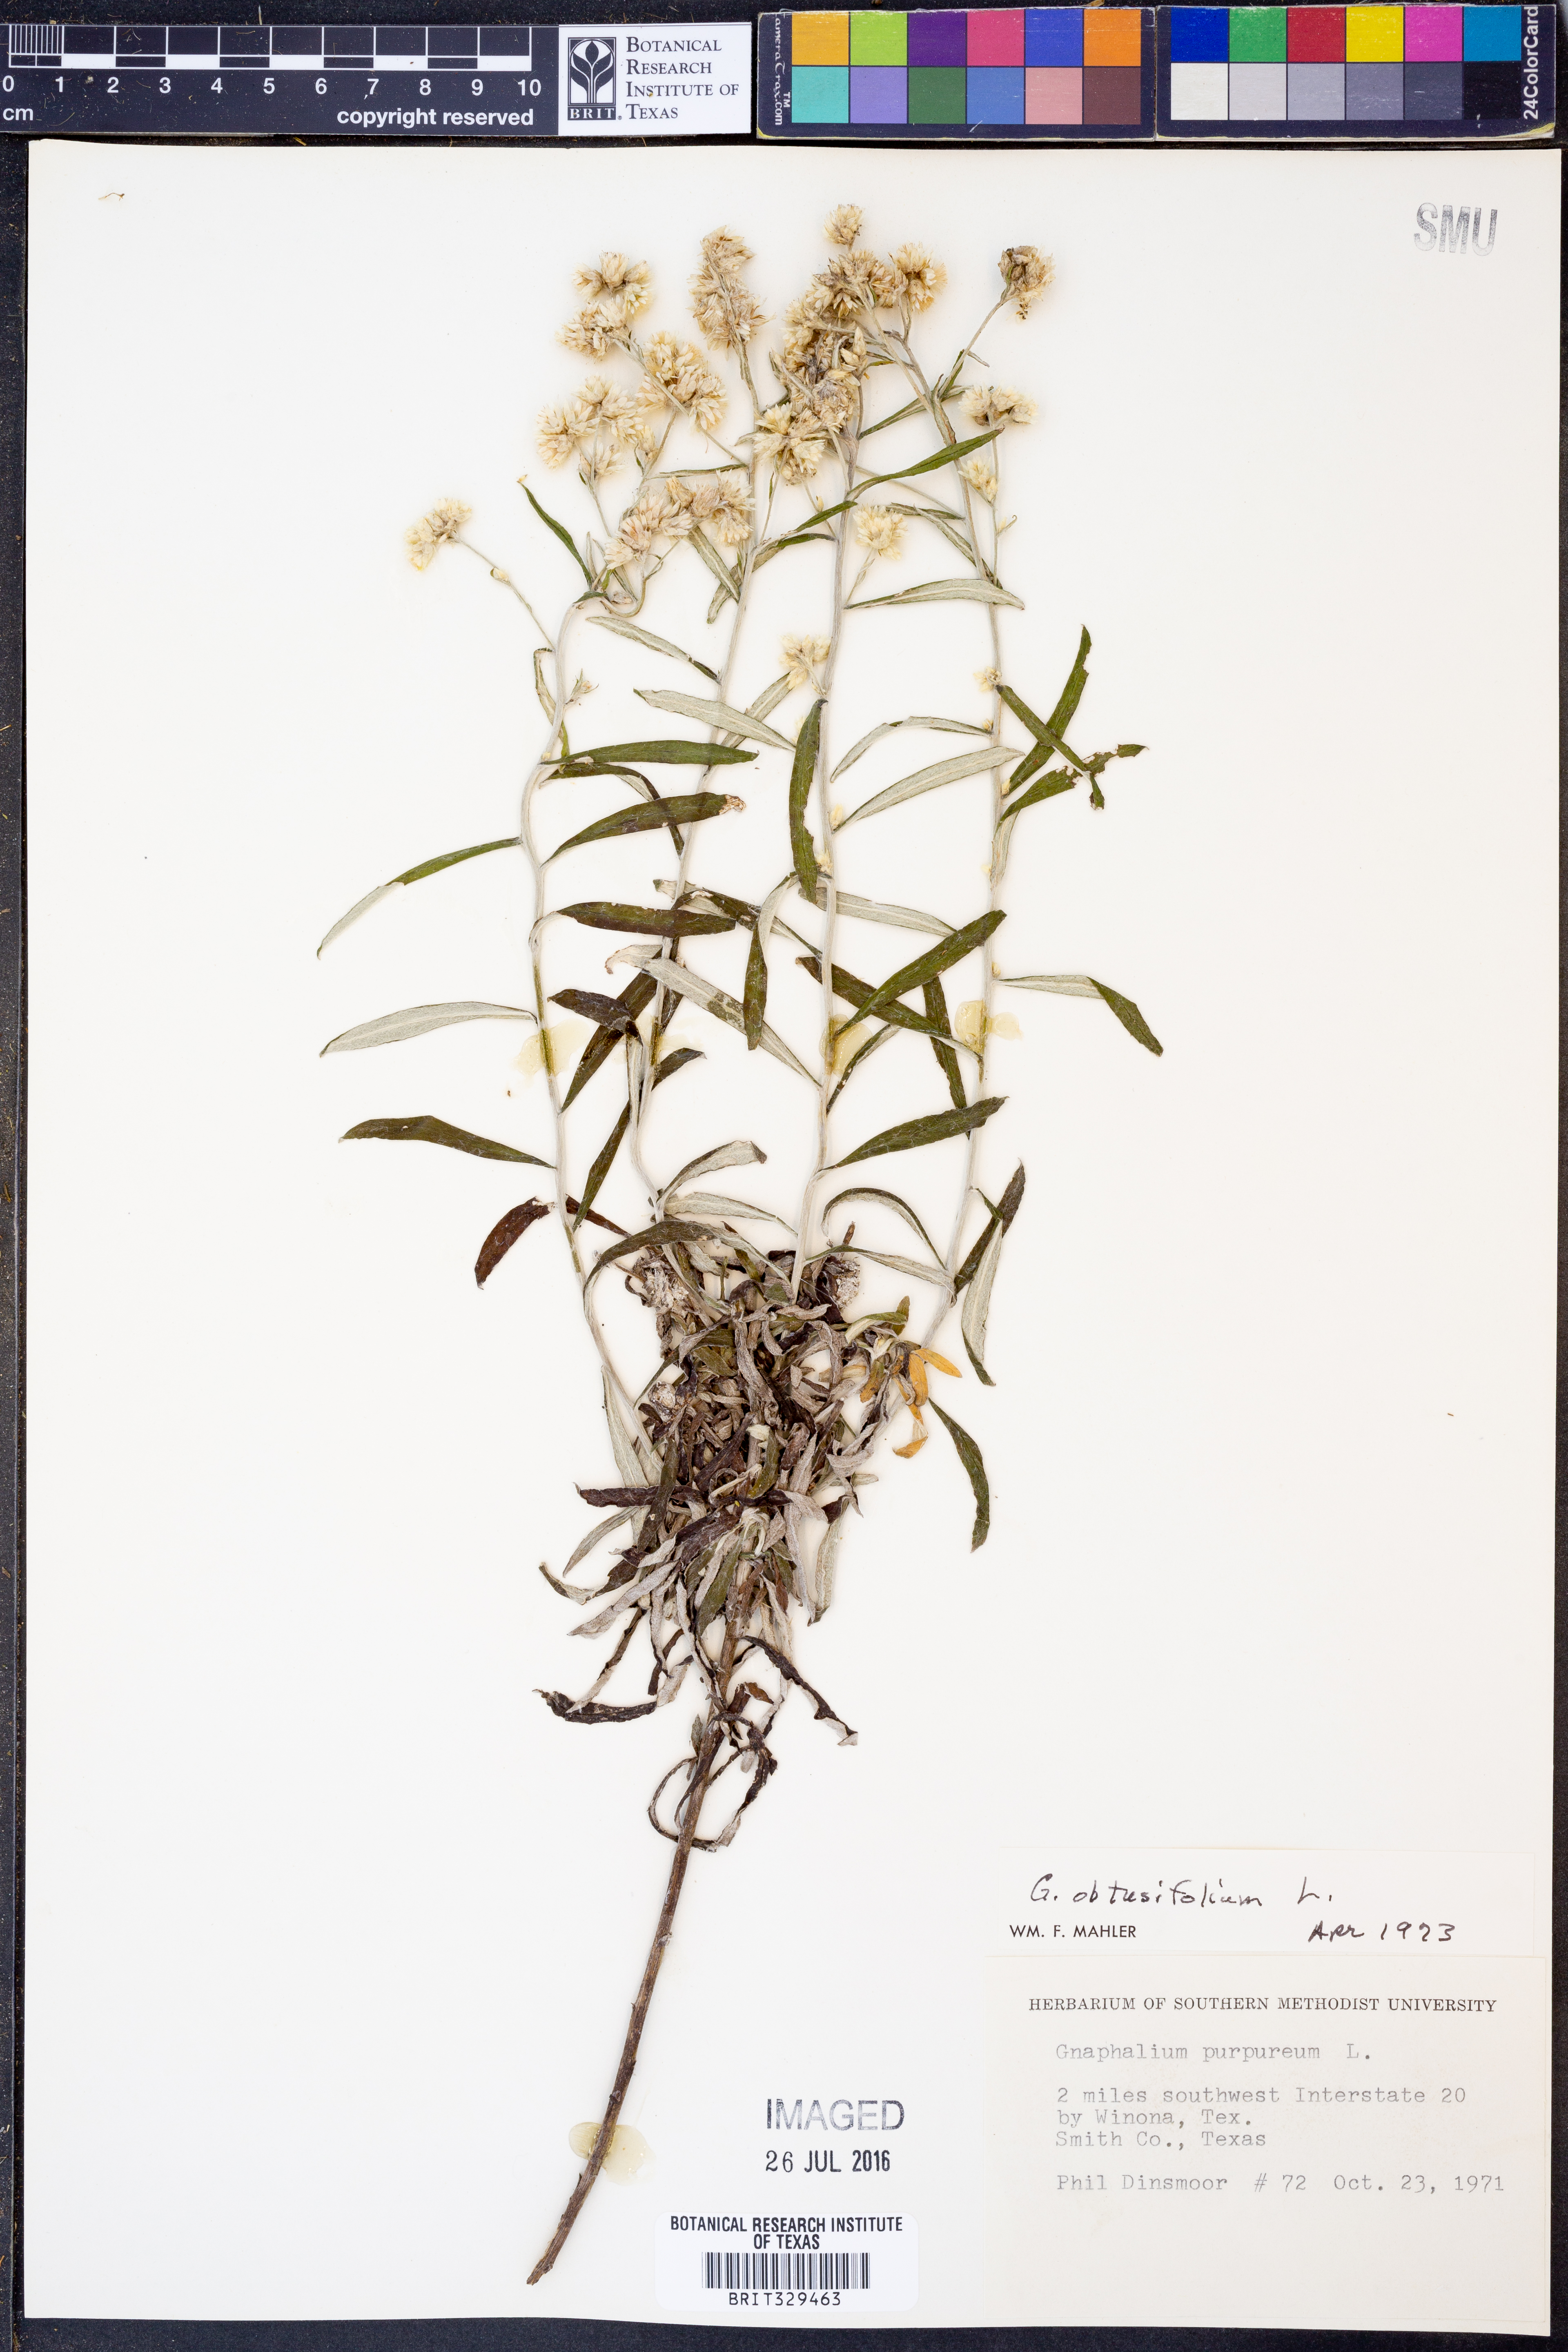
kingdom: Plantae
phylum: Tracheophyta
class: Magnoliopsida
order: Asterales
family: Asteraceae
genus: Pseudognaphalium
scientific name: Pseudognaphalium obtusifolium
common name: Eastern rabbit-tobacco
